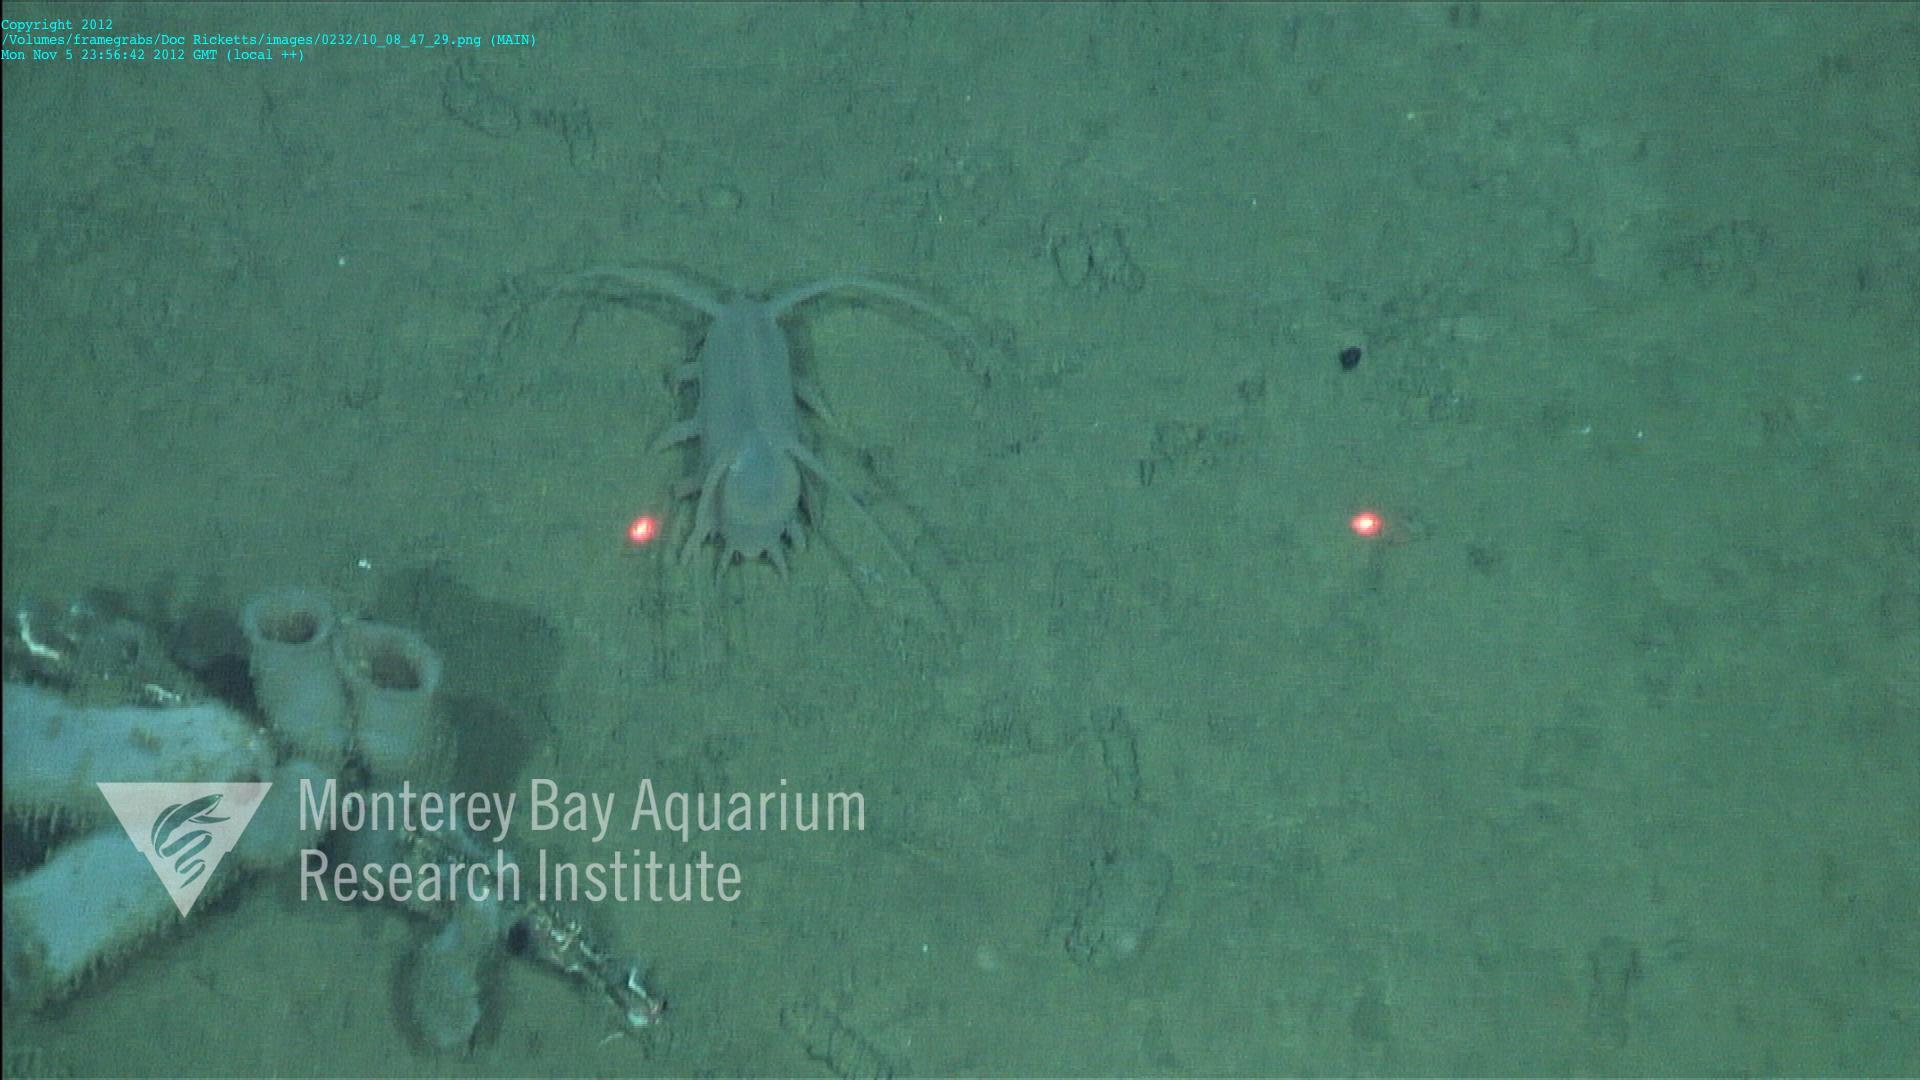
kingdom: Animalia
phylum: Porifera
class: Hexactinellida
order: Lyssacinosida
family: Rossellidae
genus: Bathydorus
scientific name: Bathydorus spinosus
